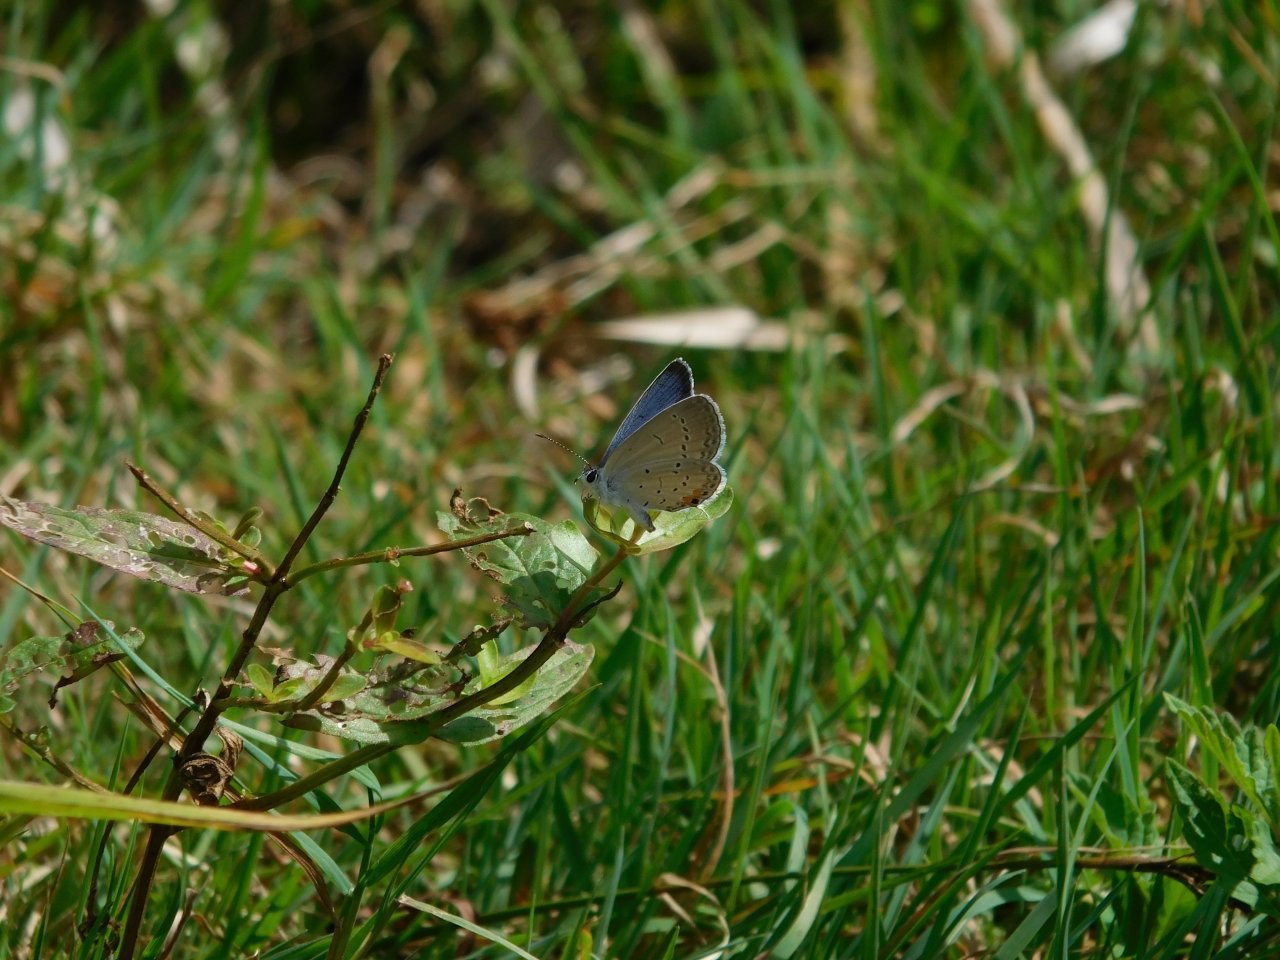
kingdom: Animalia
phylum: Arthropoda
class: Insecta
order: Lepidoptera
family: Lycaenidae
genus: Elkalyce
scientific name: Elkalyce comyntas
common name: Eastern Tailed-Blue
